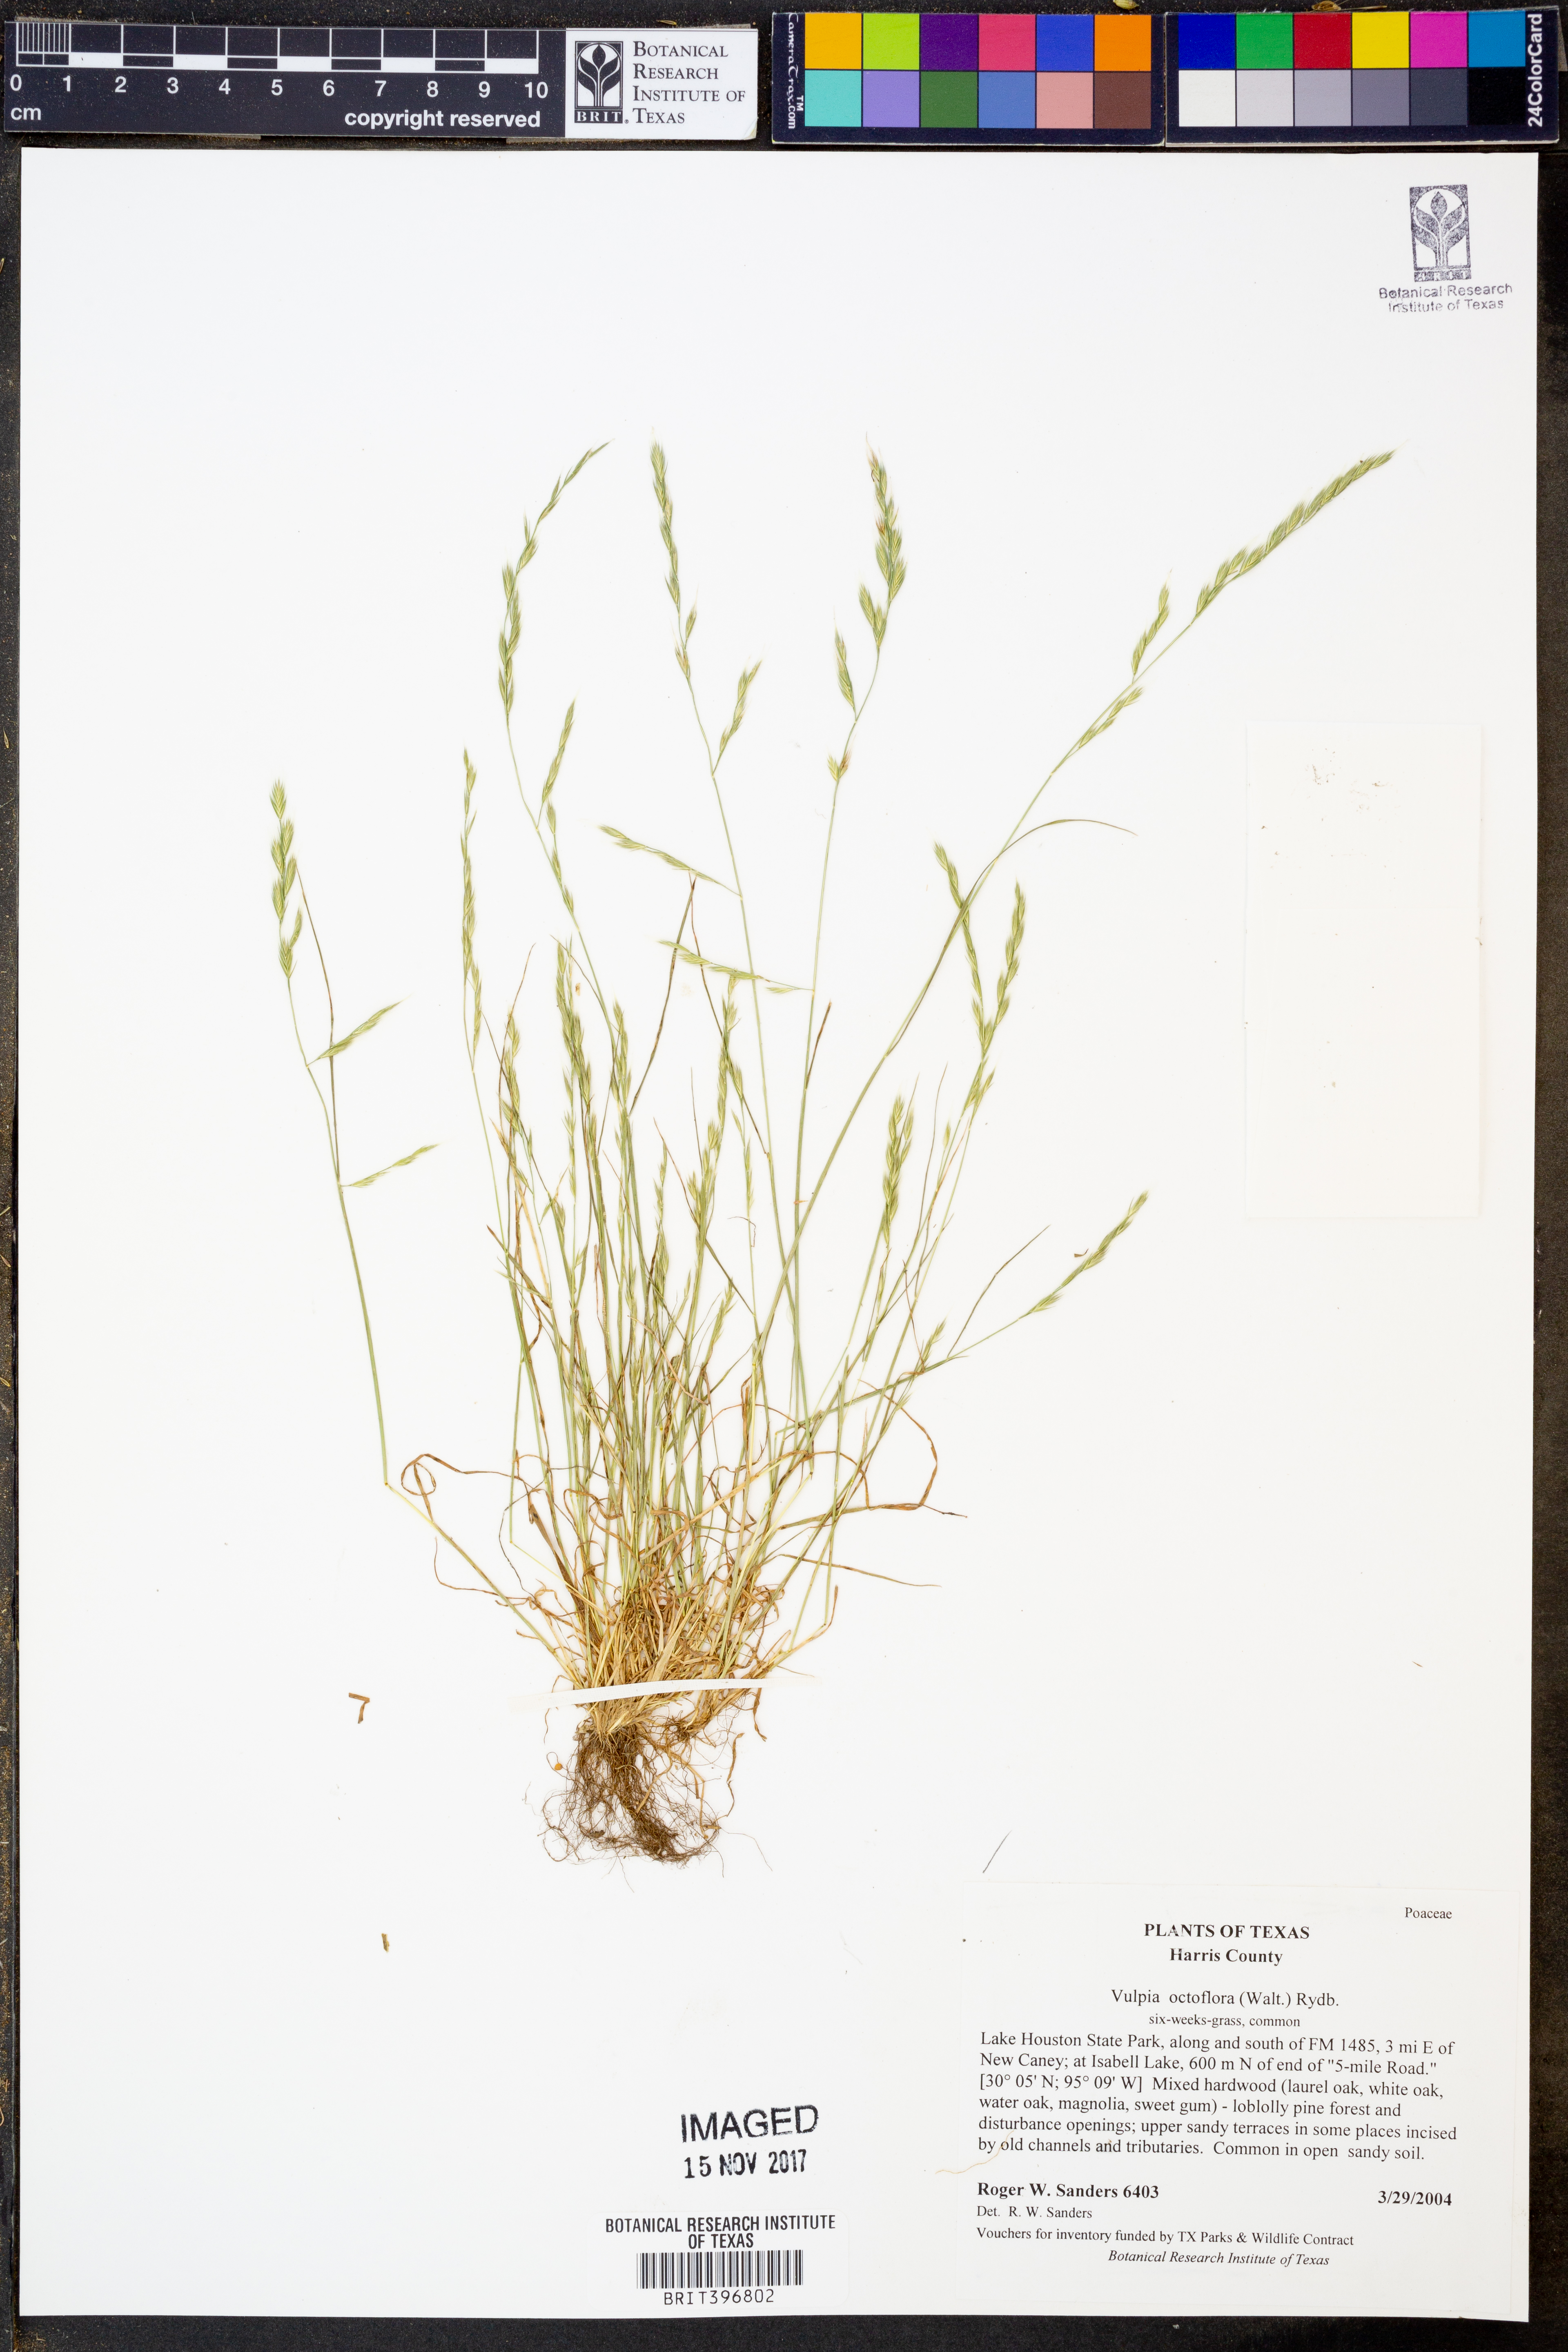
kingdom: Plantae
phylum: Tracheophyta
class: Liliopsida
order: Poales
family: Poaceae
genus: Festuca
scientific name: Festuca octoflora
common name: Sixweeks grass
